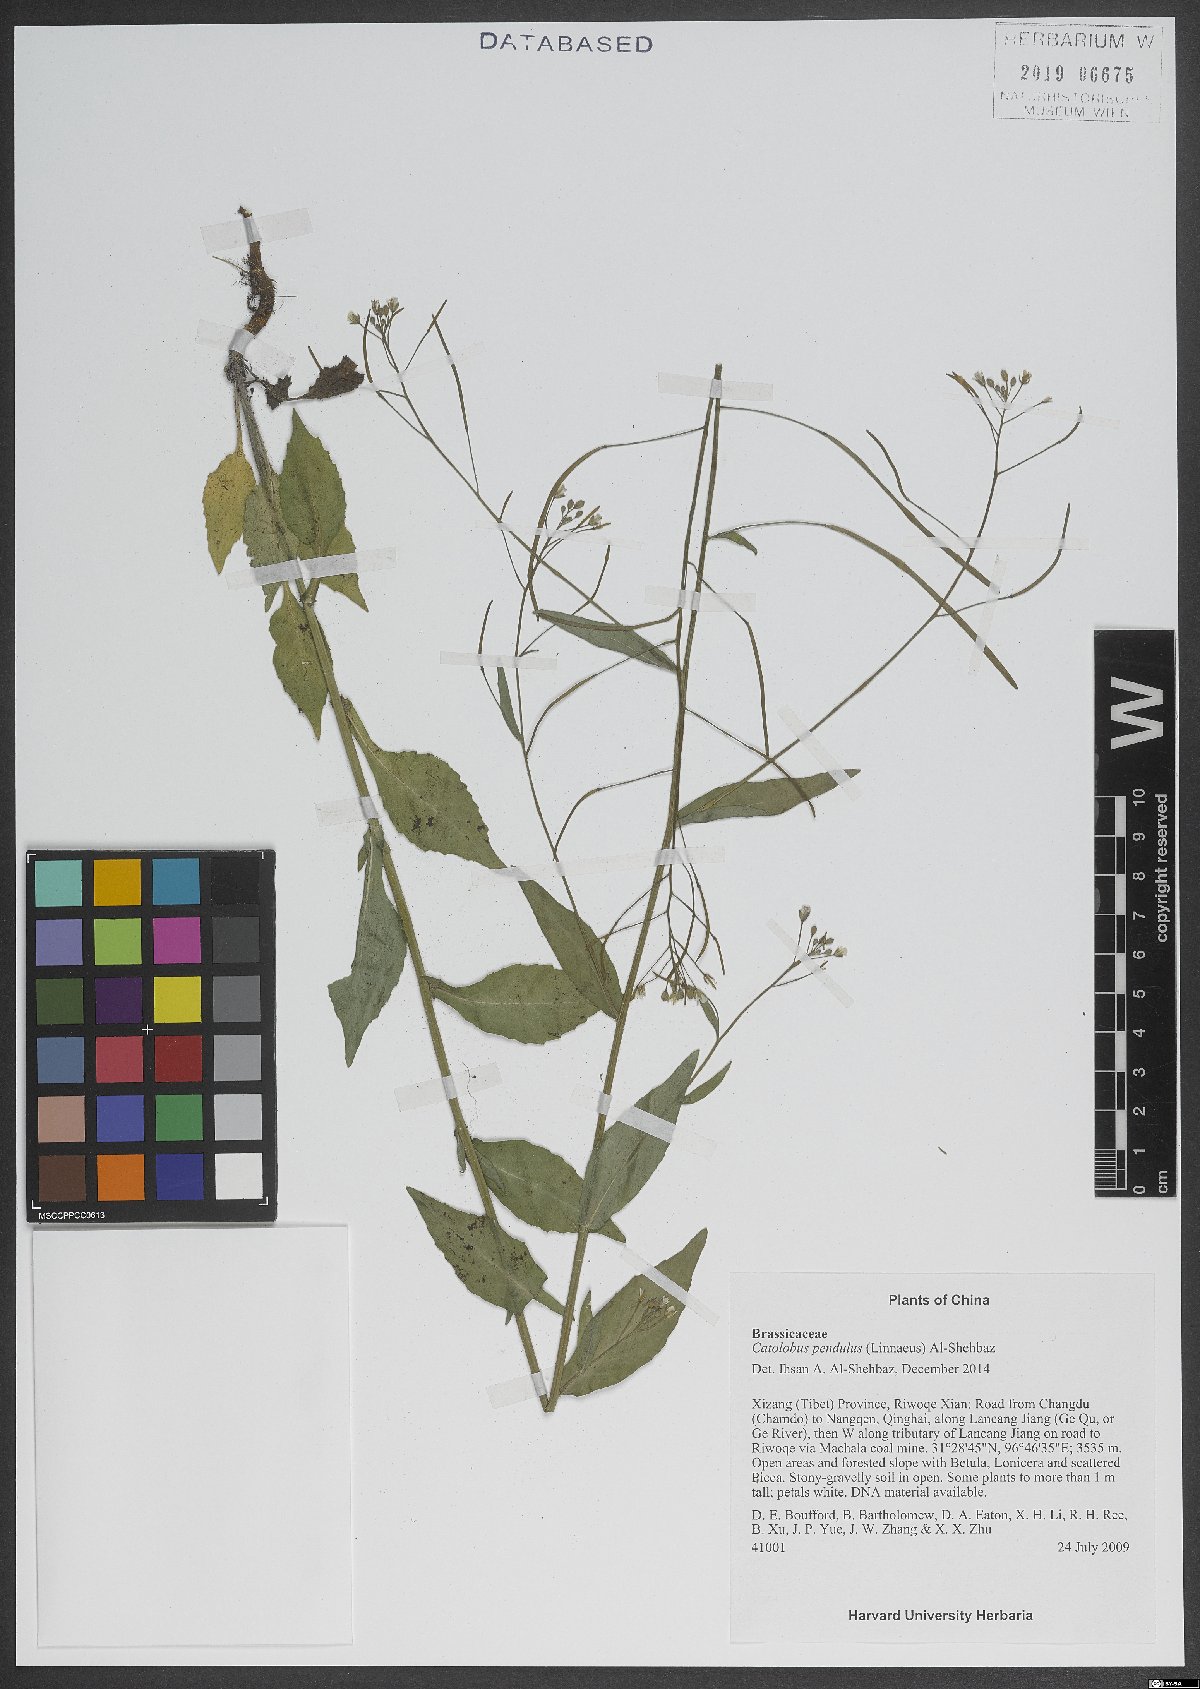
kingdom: Plantae
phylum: Tracheophyta
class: Magnoliopsida
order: Brassicales
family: Brassicaceae
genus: Catolobus
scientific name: Catolobus pendulus
